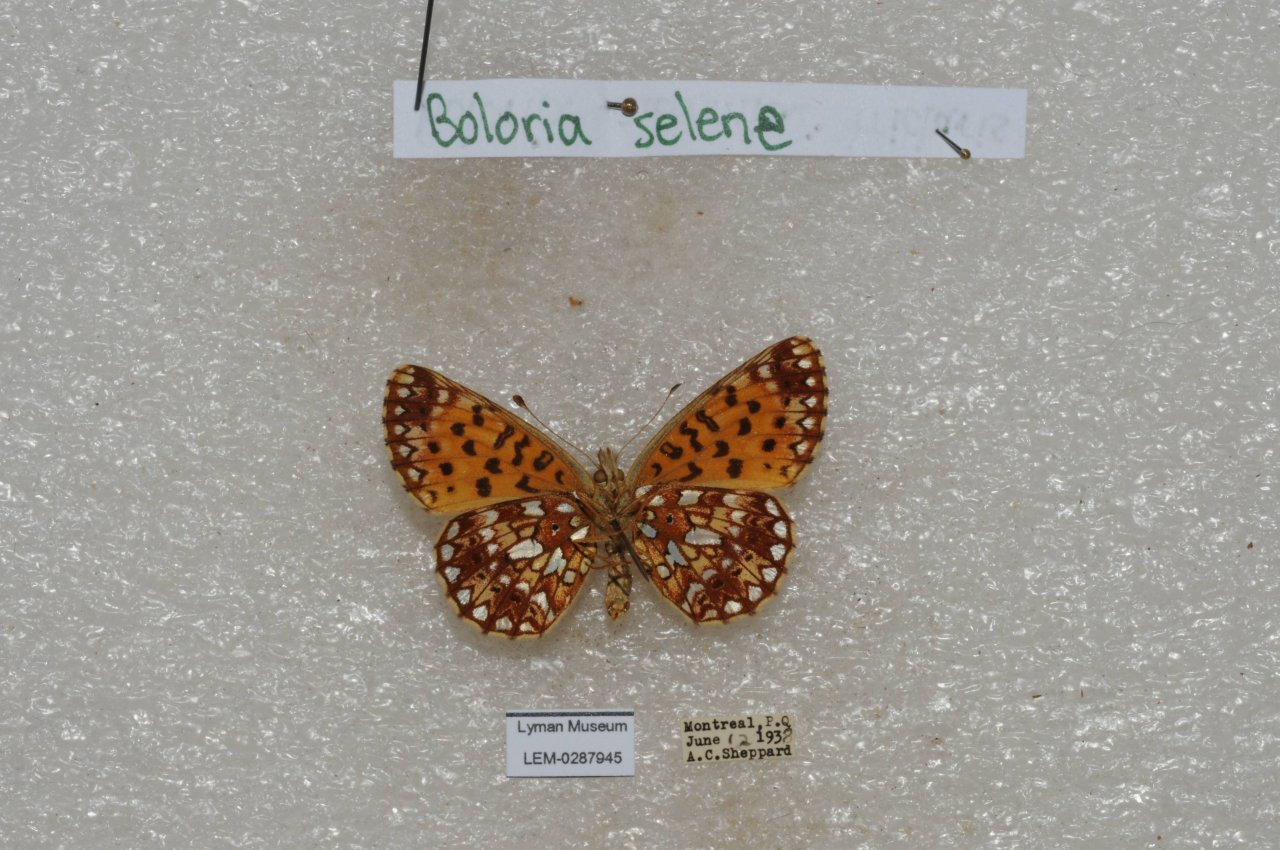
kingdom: Animalia
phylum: Arthropoda
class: Insecta
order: Lepidoptera
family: Nymphalidae
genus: Boloria
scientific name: Boloria selene
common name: Silver-bordered Fritillary
